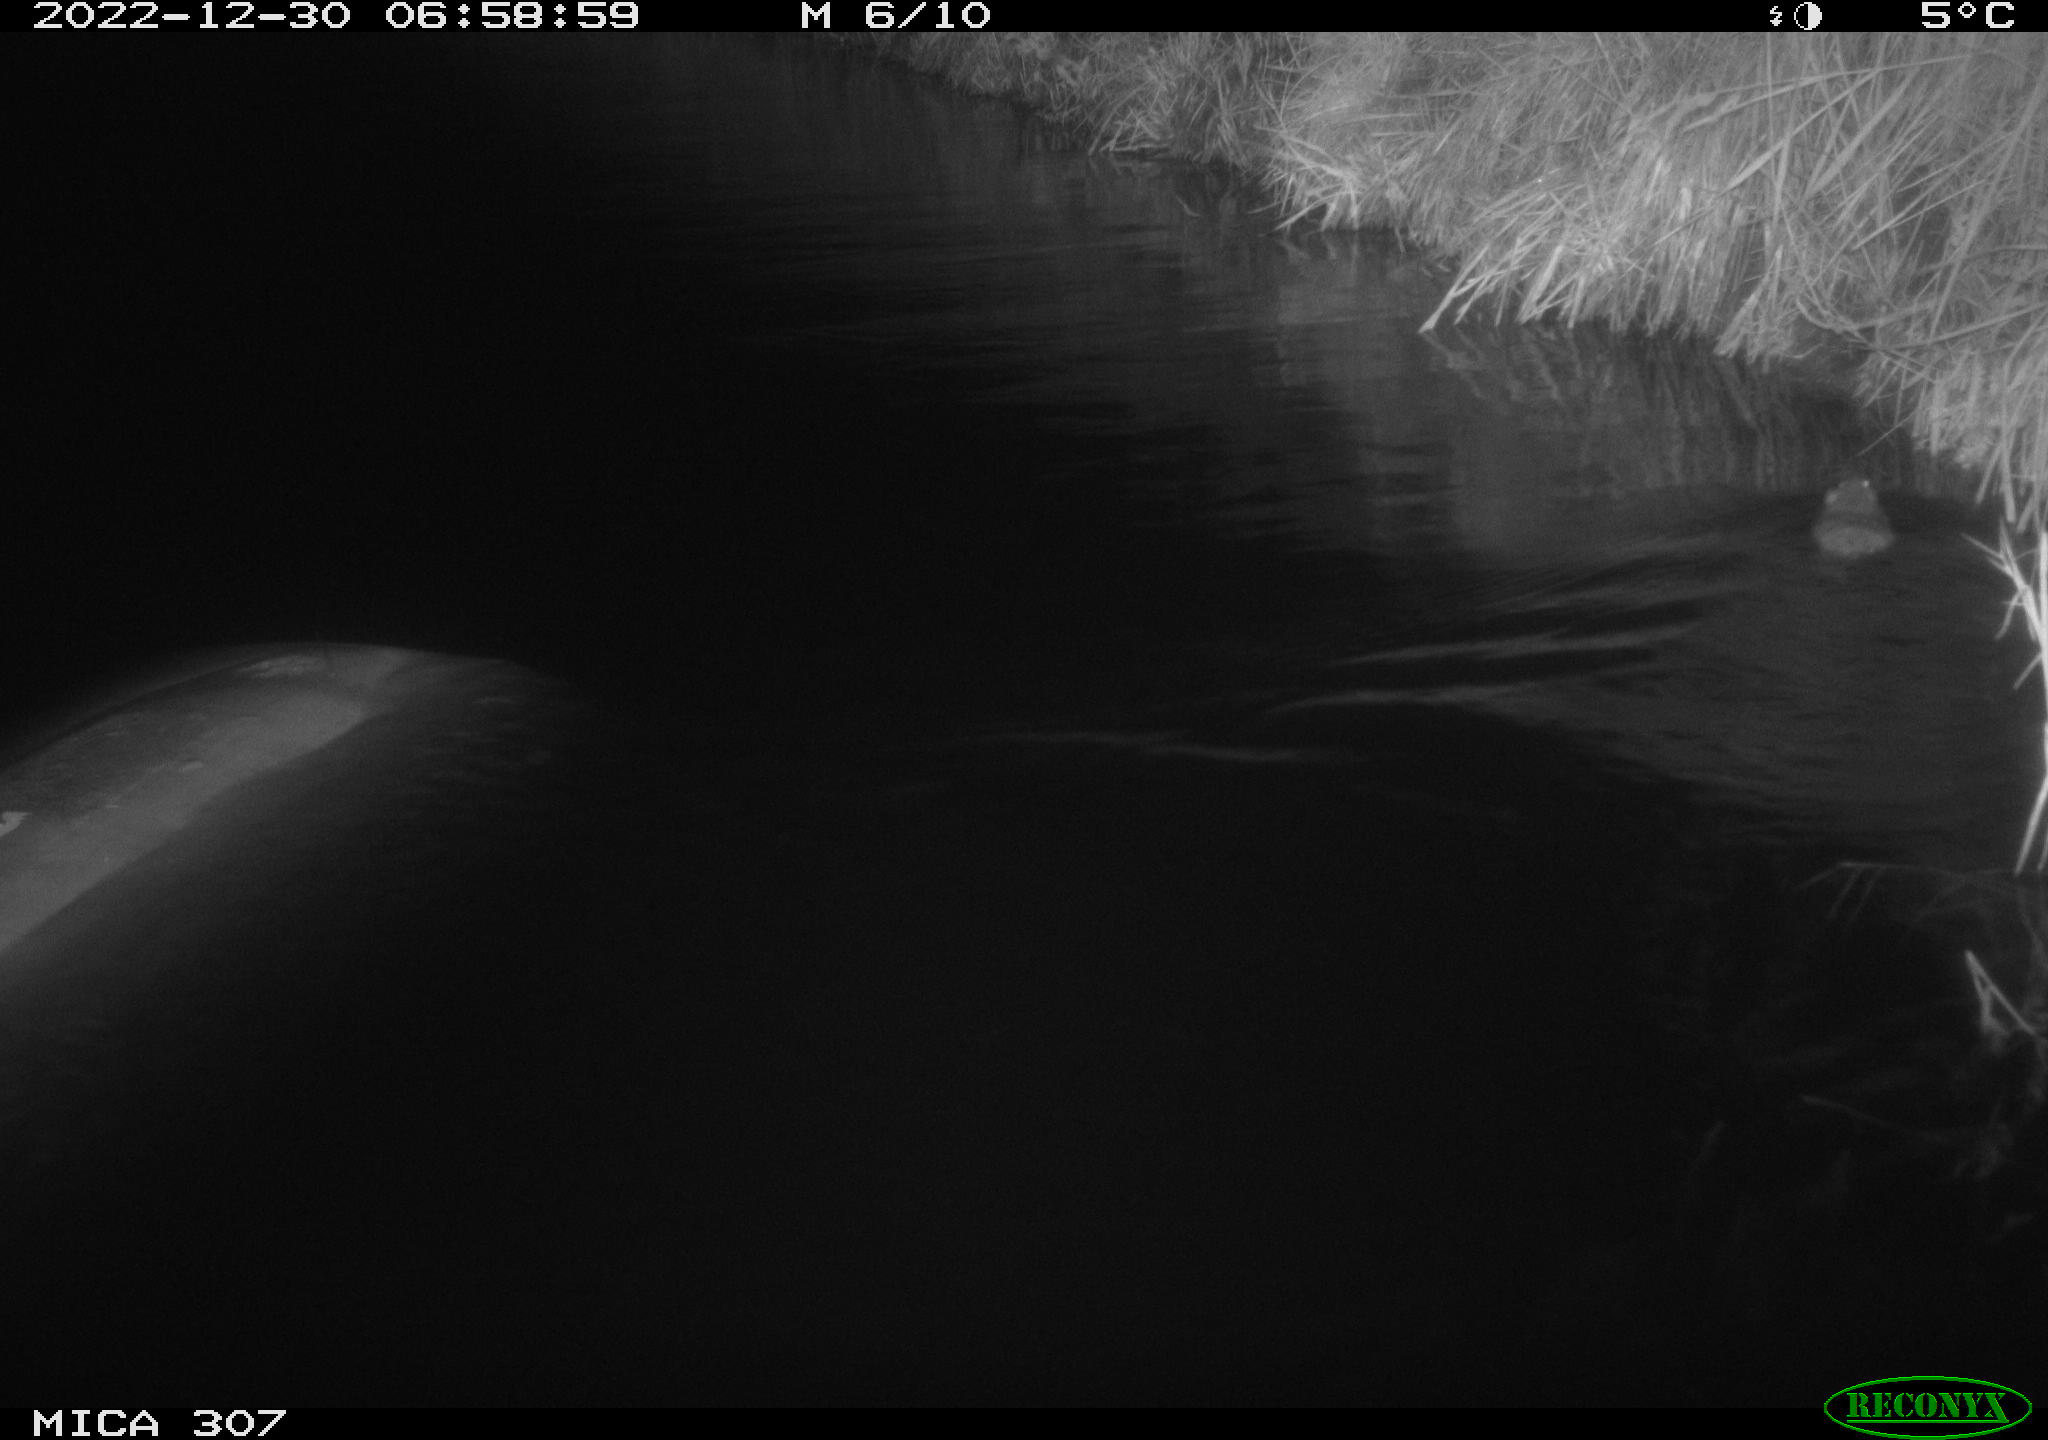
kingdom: Animalia
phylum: Chordata
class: Mammalia
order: Rodentia
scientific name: Rodentia
